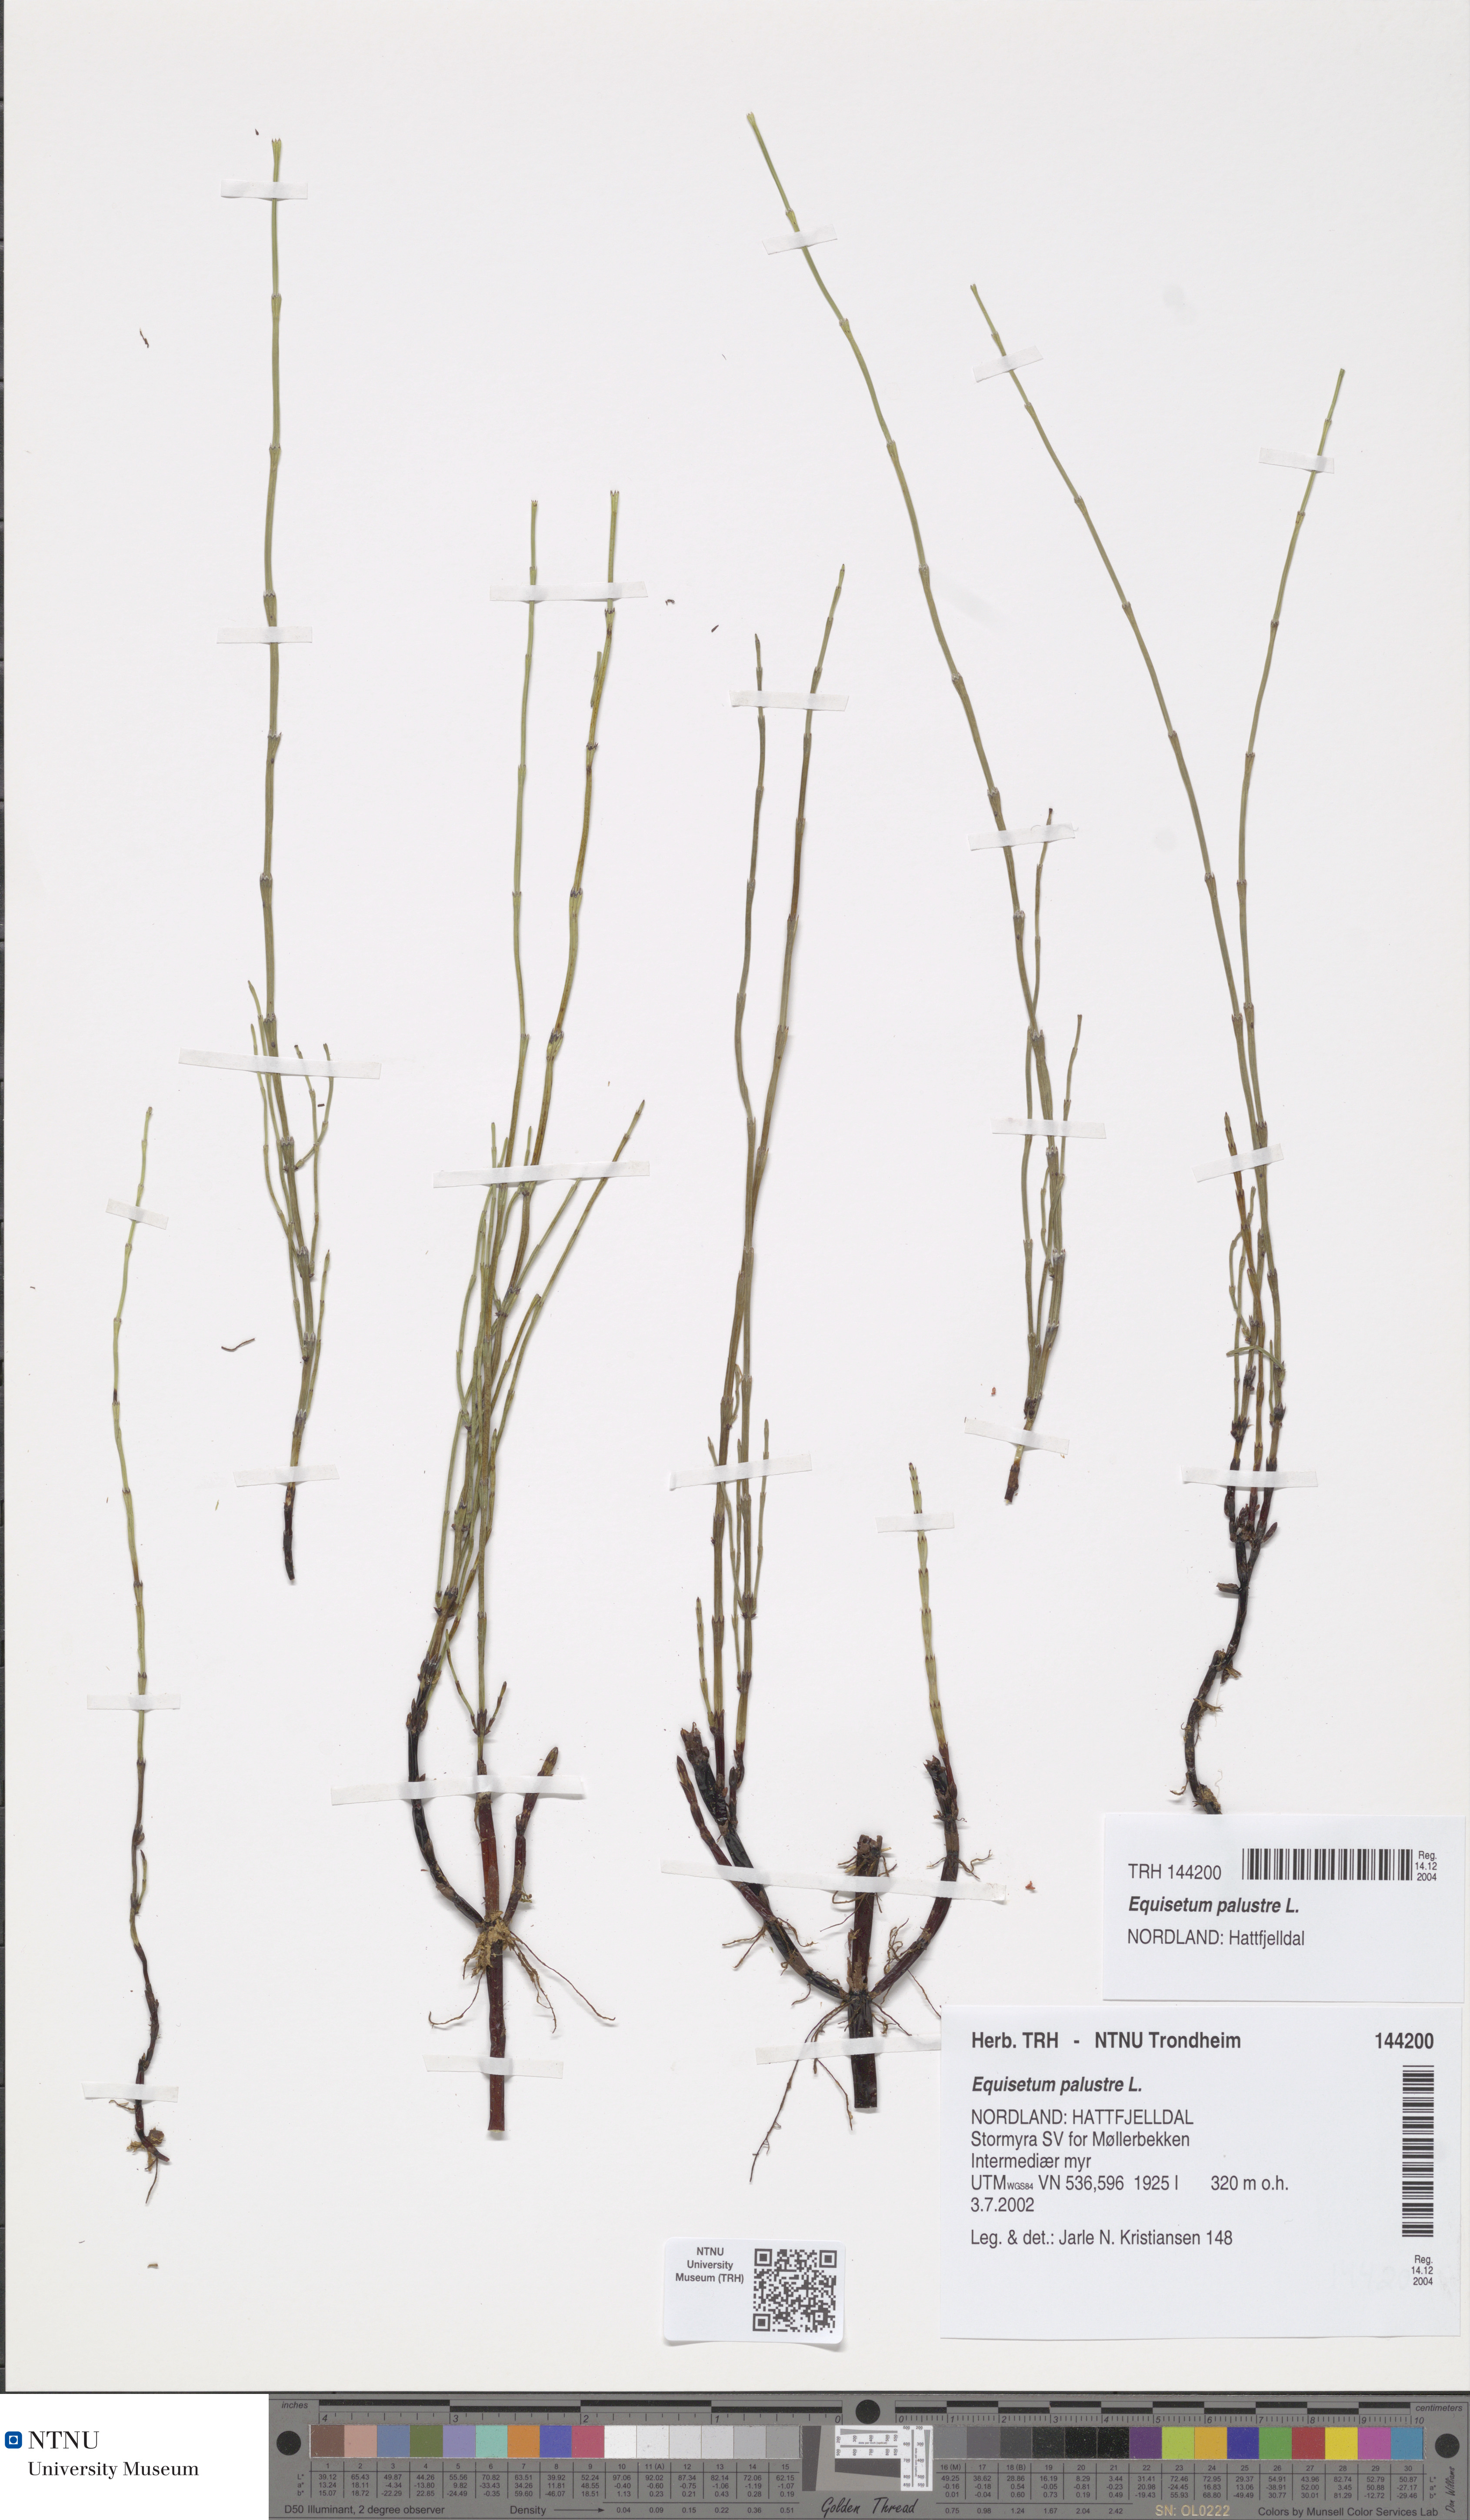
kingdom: Plantae
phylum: Tracheophyta
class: Polypodiopsida
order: Equisetales
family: Equisetaceae
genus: Equisetum
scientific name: Equisetum palustre
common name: Marsh horsetail
